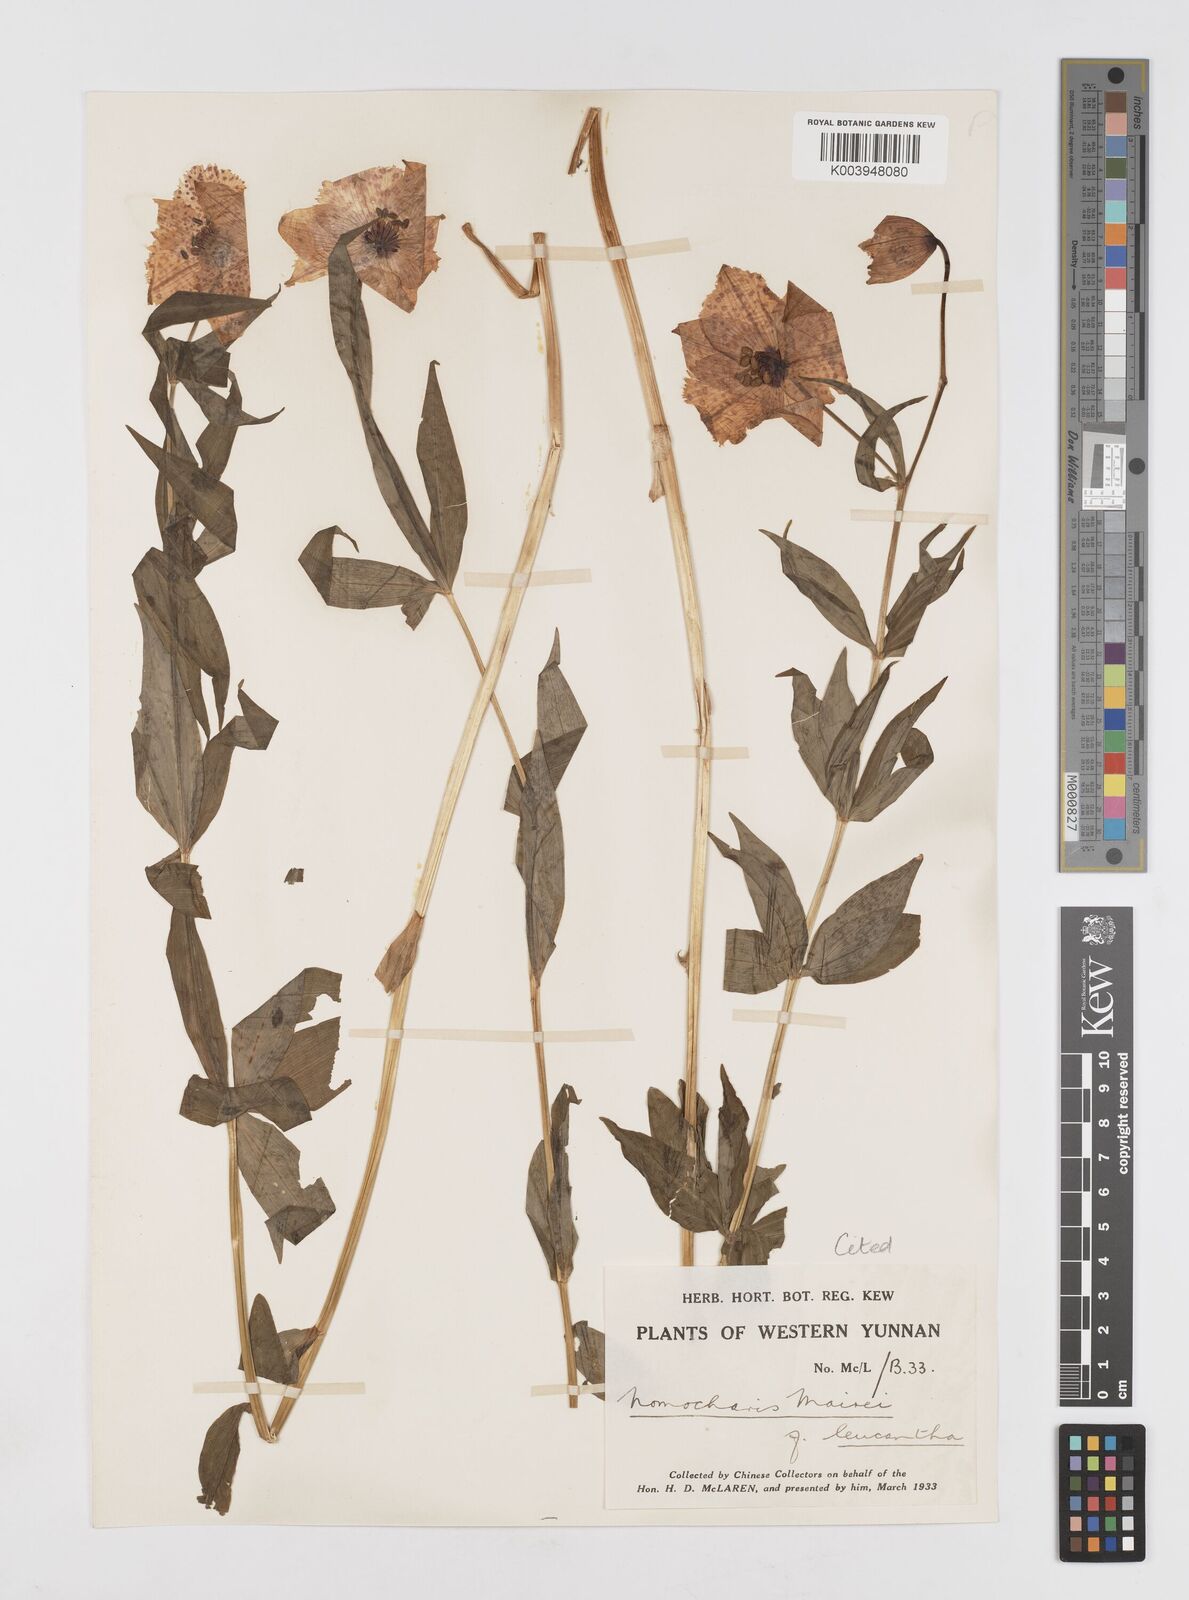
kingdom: Plantae
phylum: Tracheophyta
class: Liliopsida
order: Liliales
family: Liliaceae
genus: Lilium
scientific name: Lilium pardanthinum
